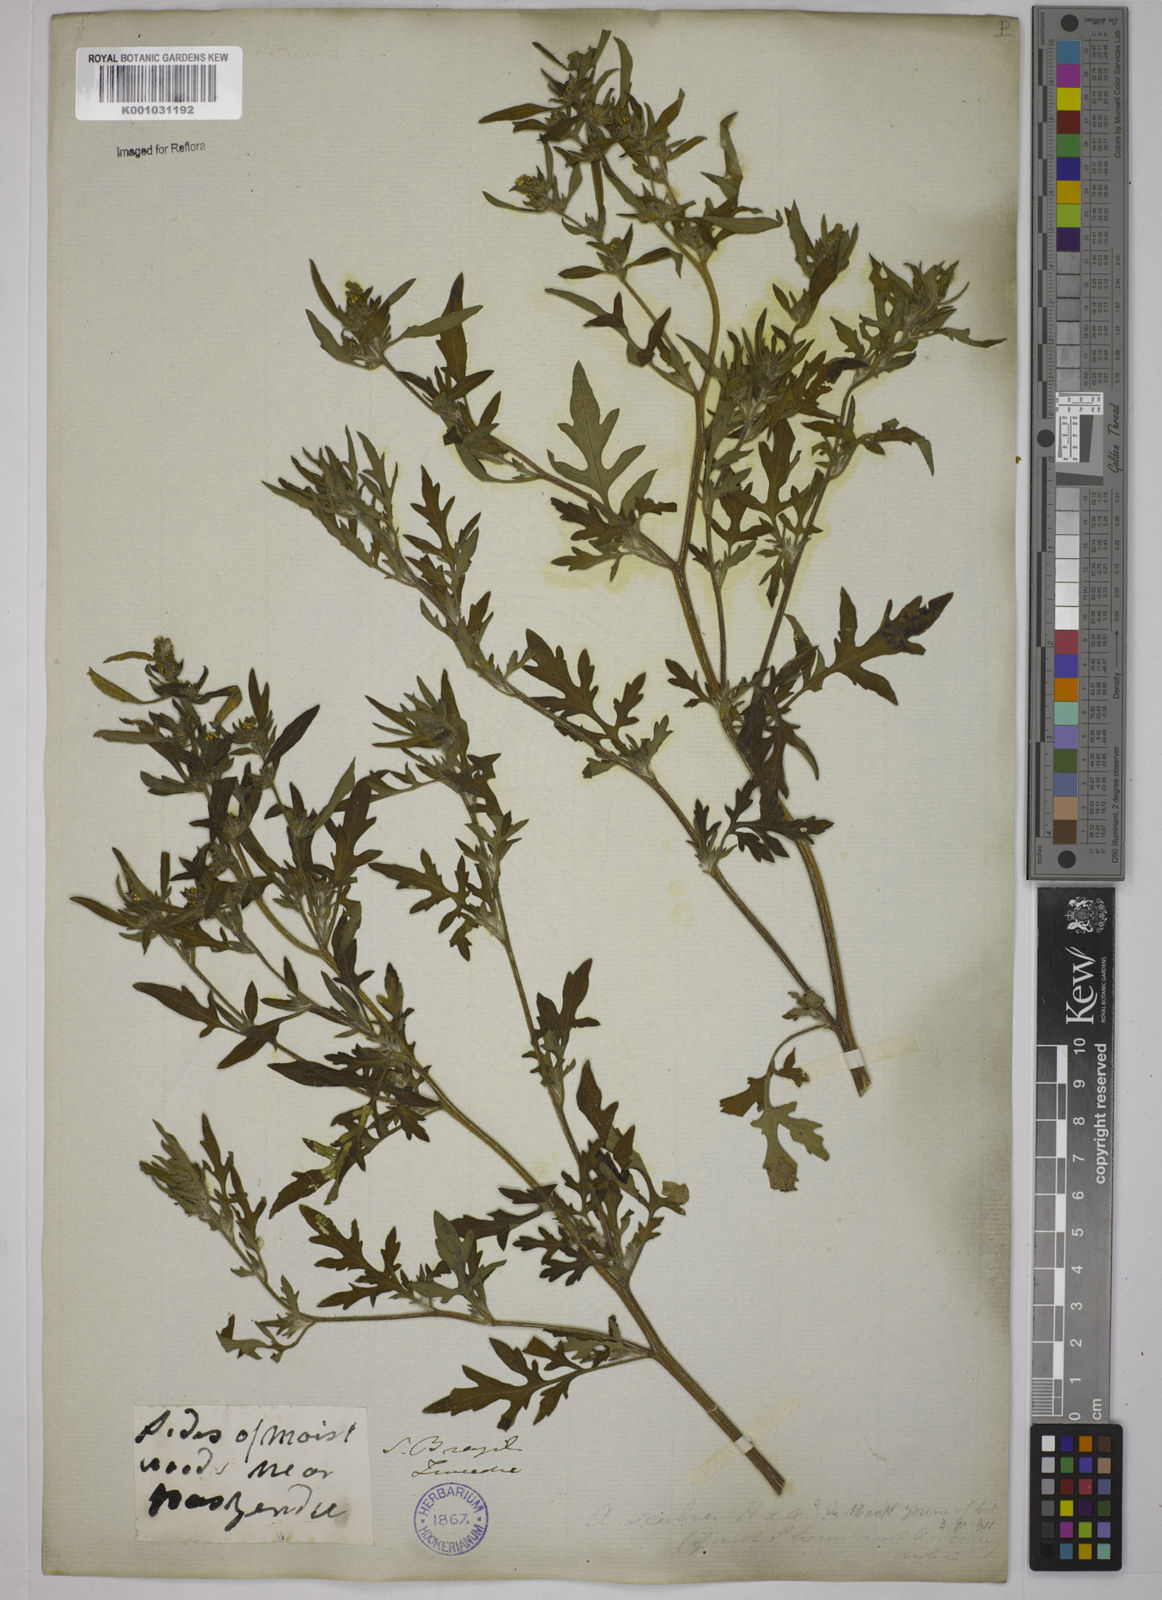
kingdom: Plantae
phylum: Tracheophyta
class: Magnoliopsida
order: Asterales
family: Asteraceae
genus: Ambrosia
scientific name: Ambrosia artemisiifolia
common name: Annual ragweed
